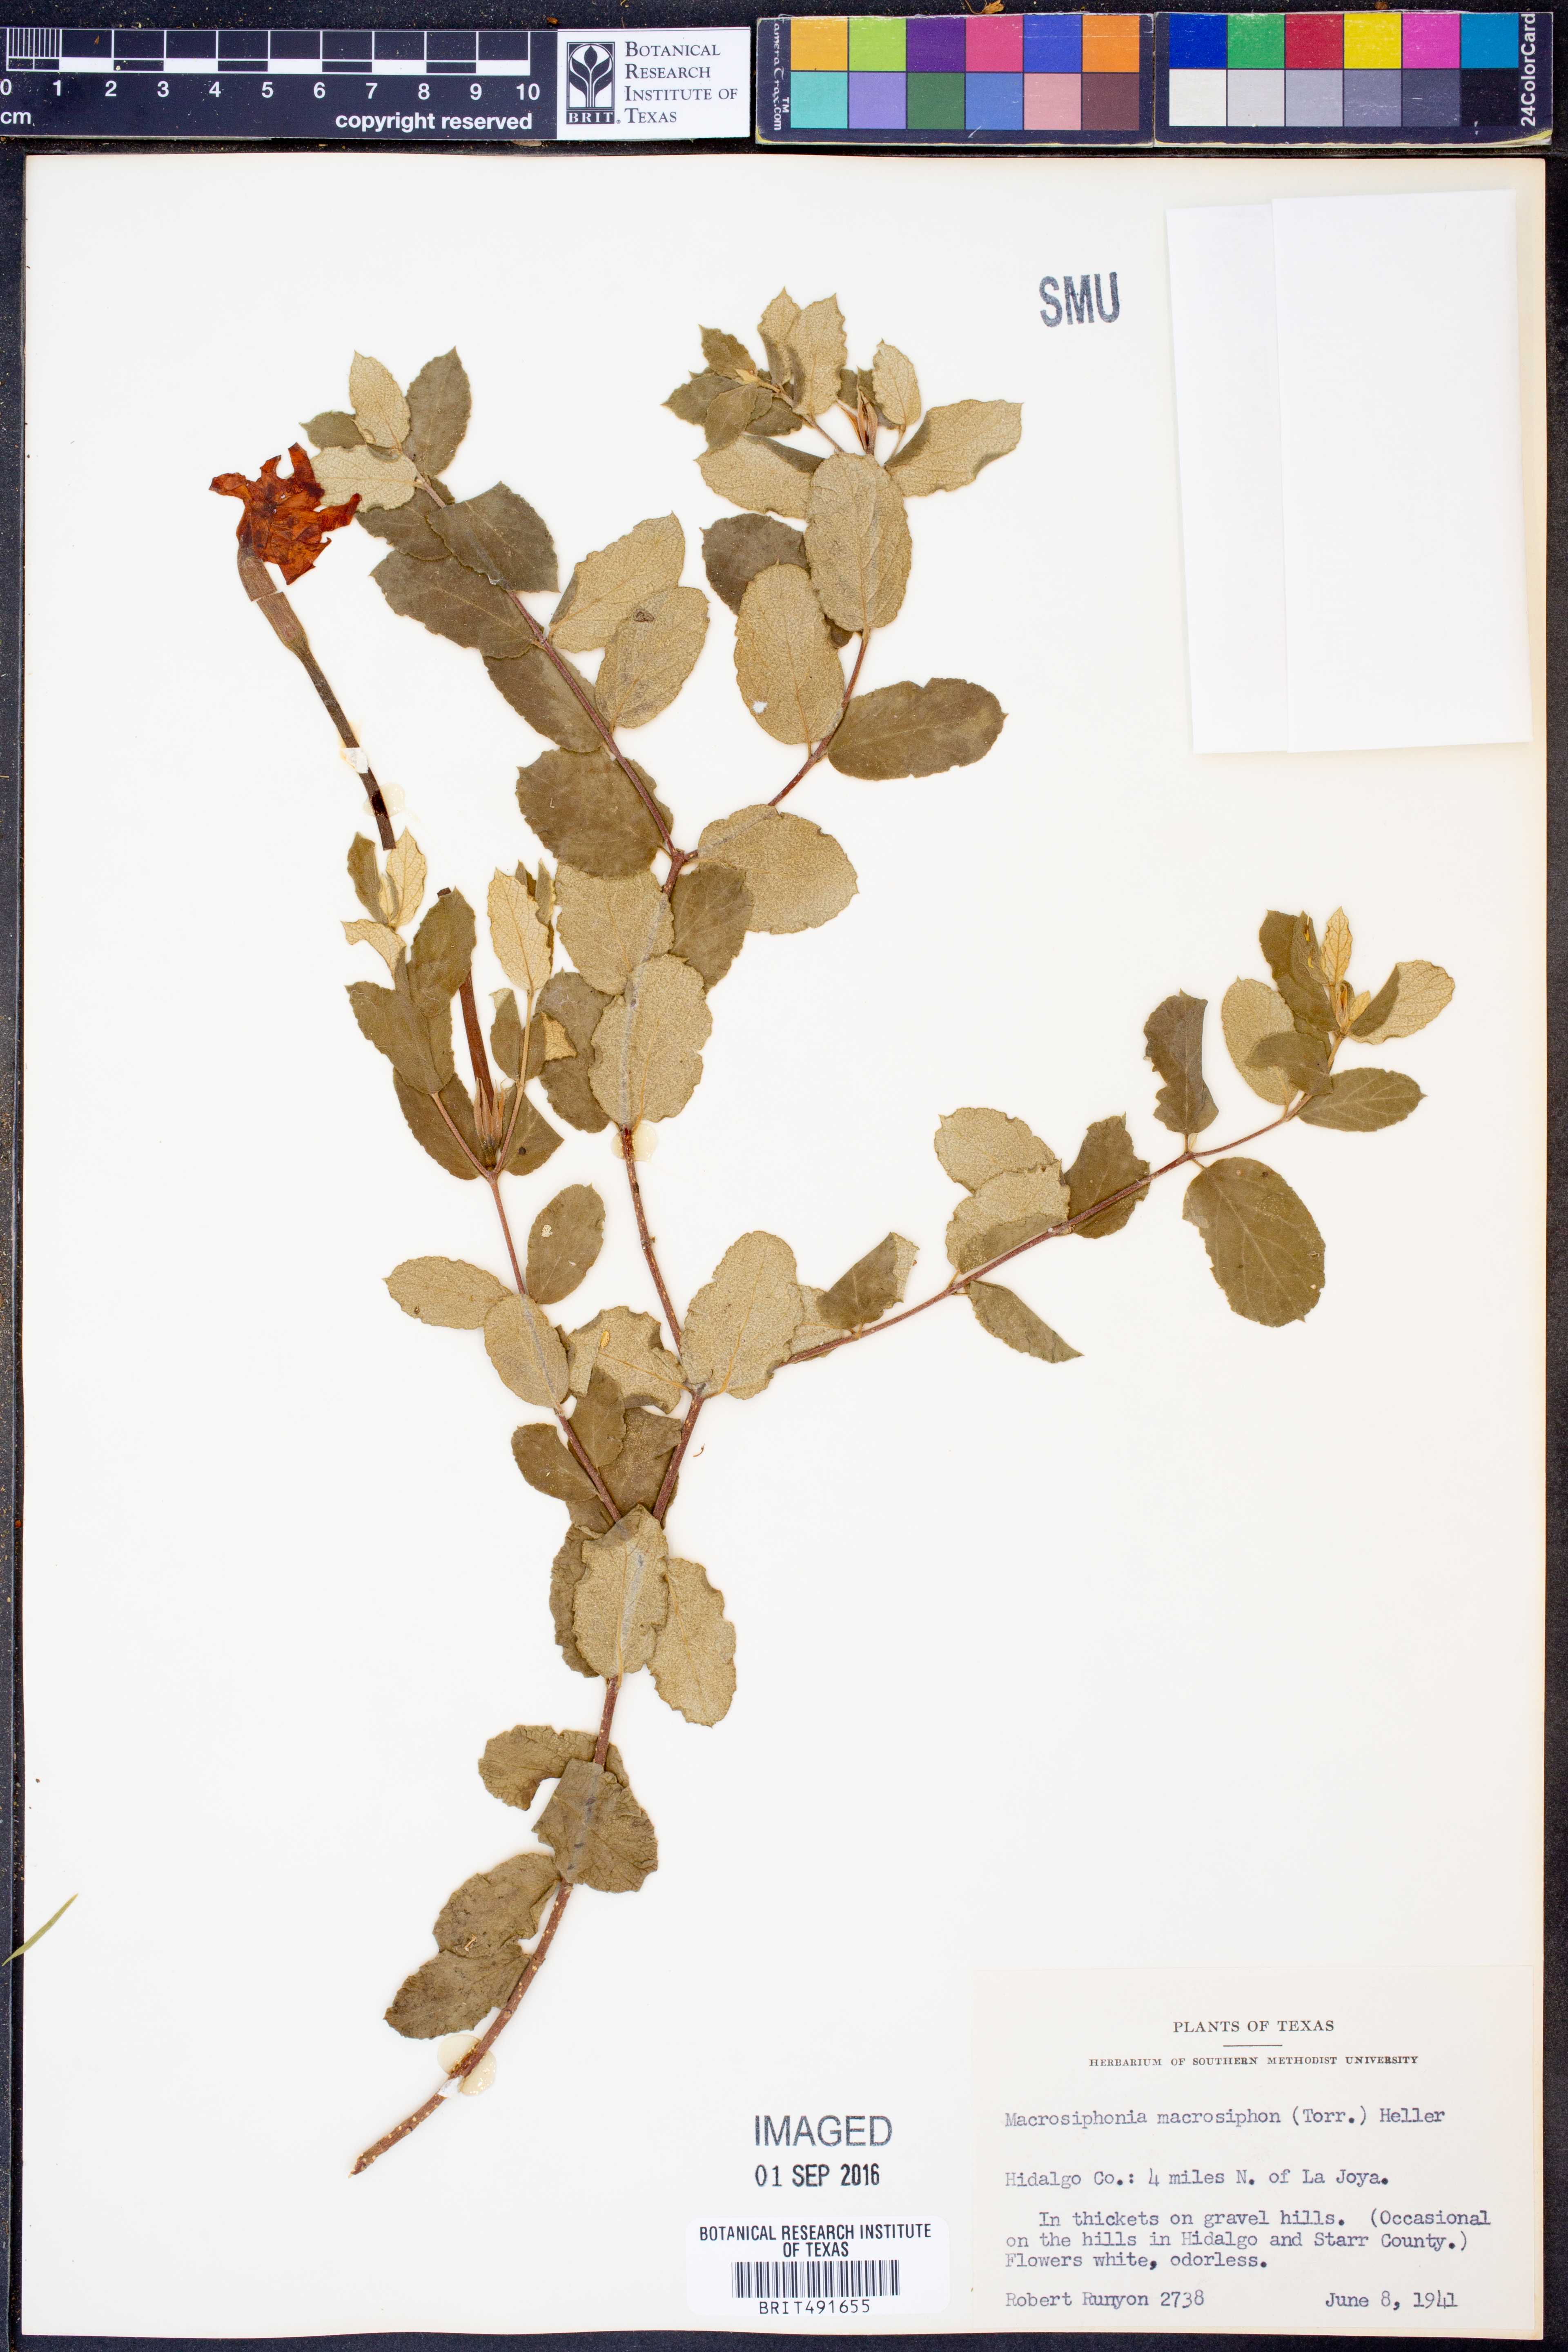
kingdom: Plantae
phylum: Tracheophyta
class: Magnoliopsida
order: Gentianales
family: Apocynaceae
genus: Mandevilla
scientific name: Mandevilla macrosiphon
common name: Plateau rocktrumpet
